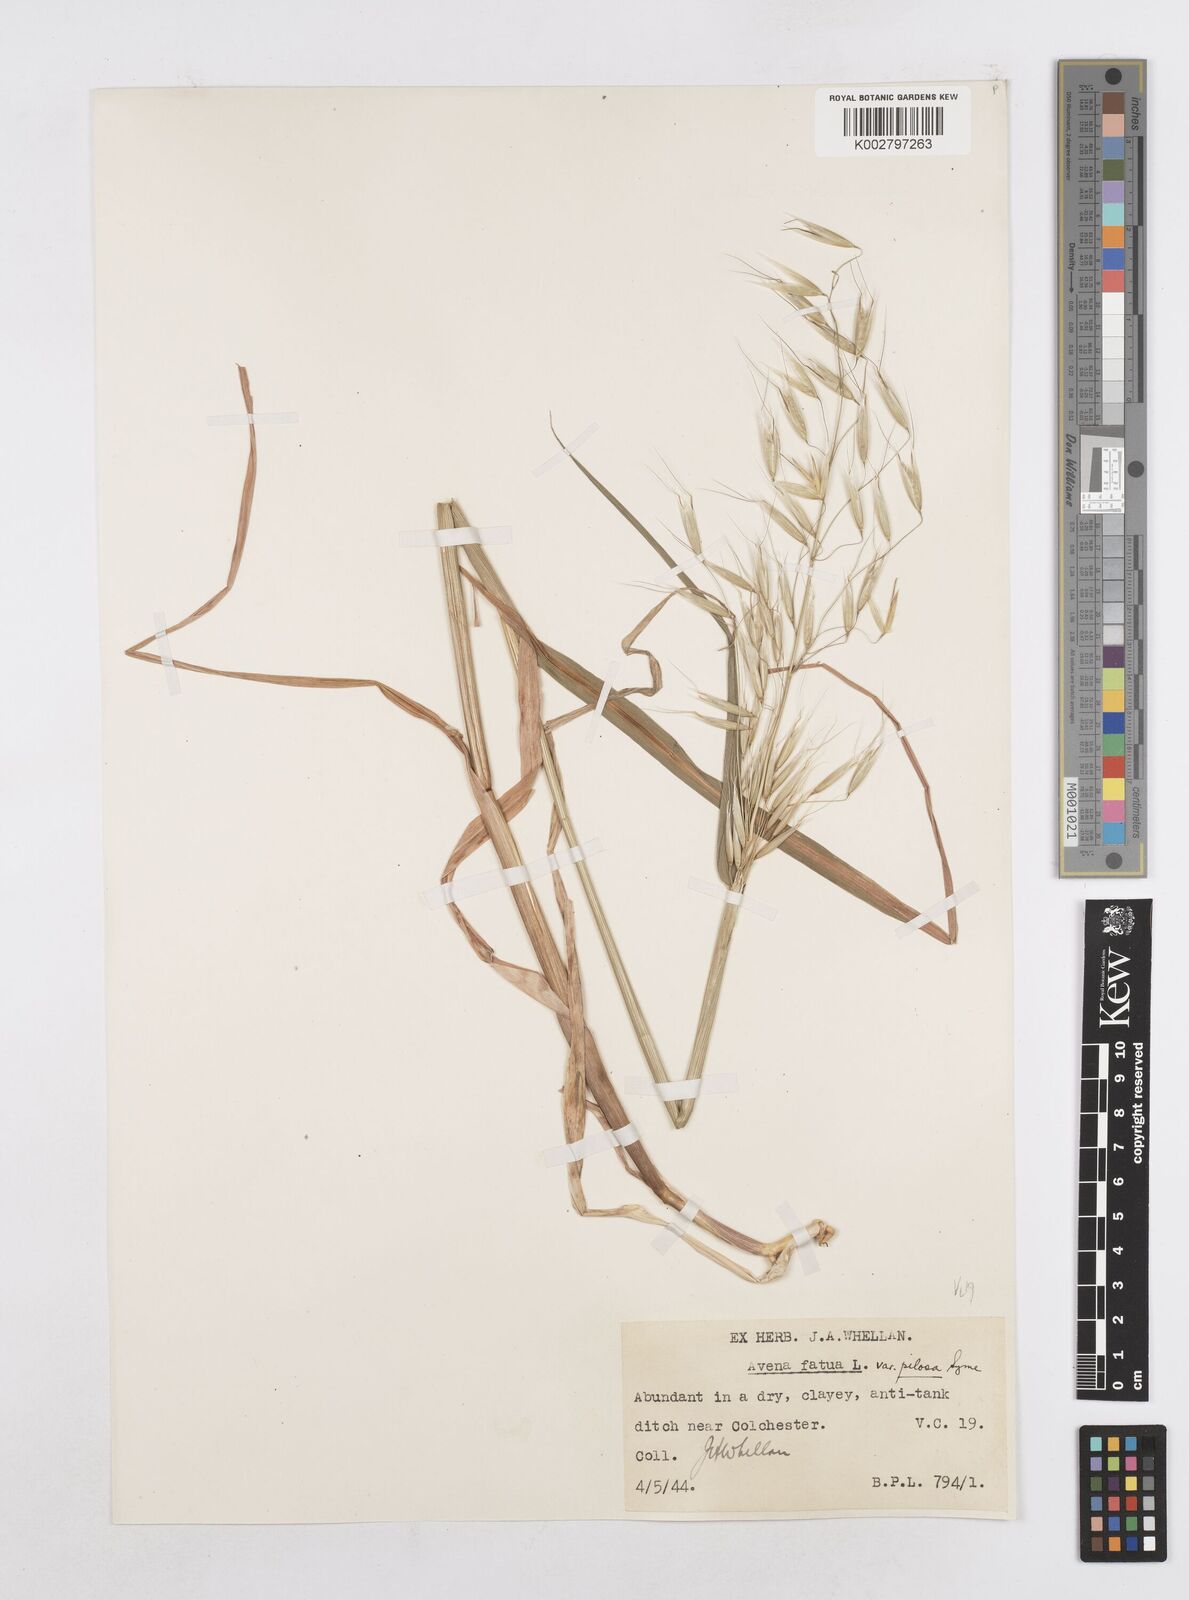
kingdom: Plantae
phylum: Tracheophyta
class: Liliopsida
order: Poales
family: Poaceae
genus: Avena
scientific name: Avena fatua
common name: Wild oat
